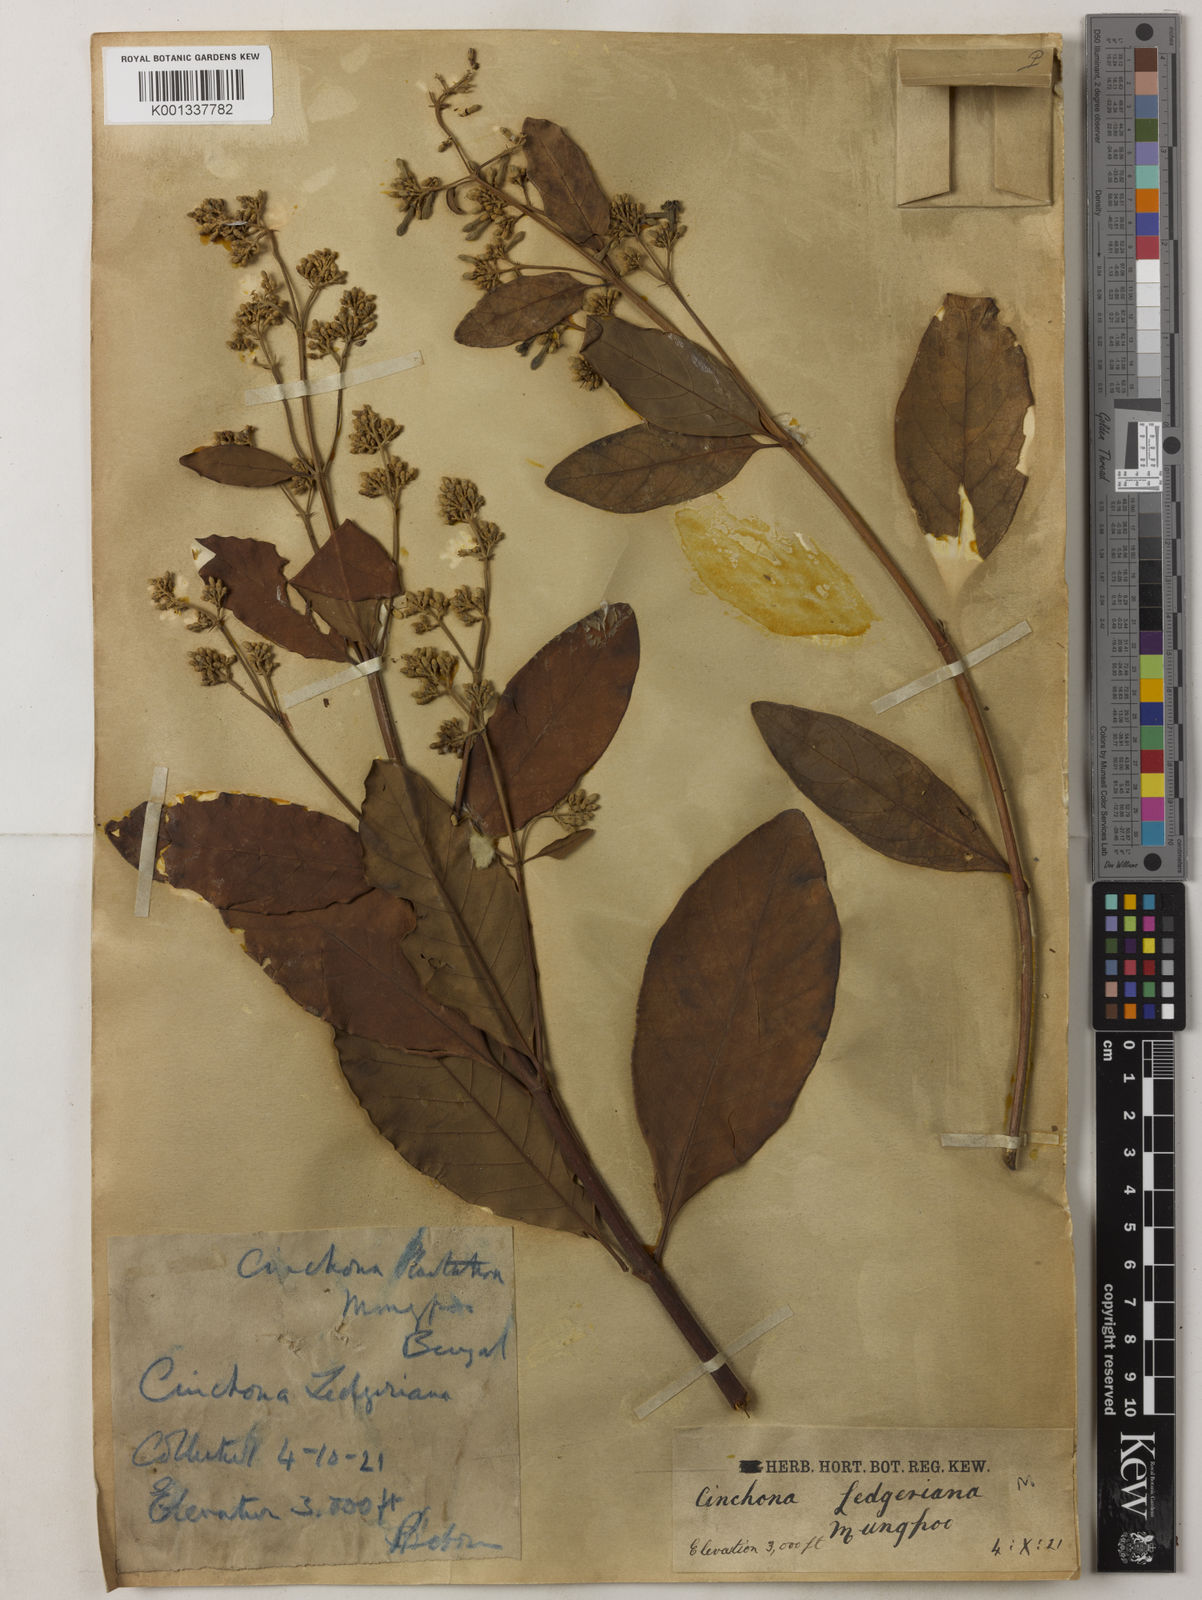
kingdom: Plantae
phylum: Tracheophyta
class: Magnoliopsida
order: Gentianales
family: Rubiaceae
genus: Cinchona
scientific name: Cinchona calisaya
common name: Ledgerbark
